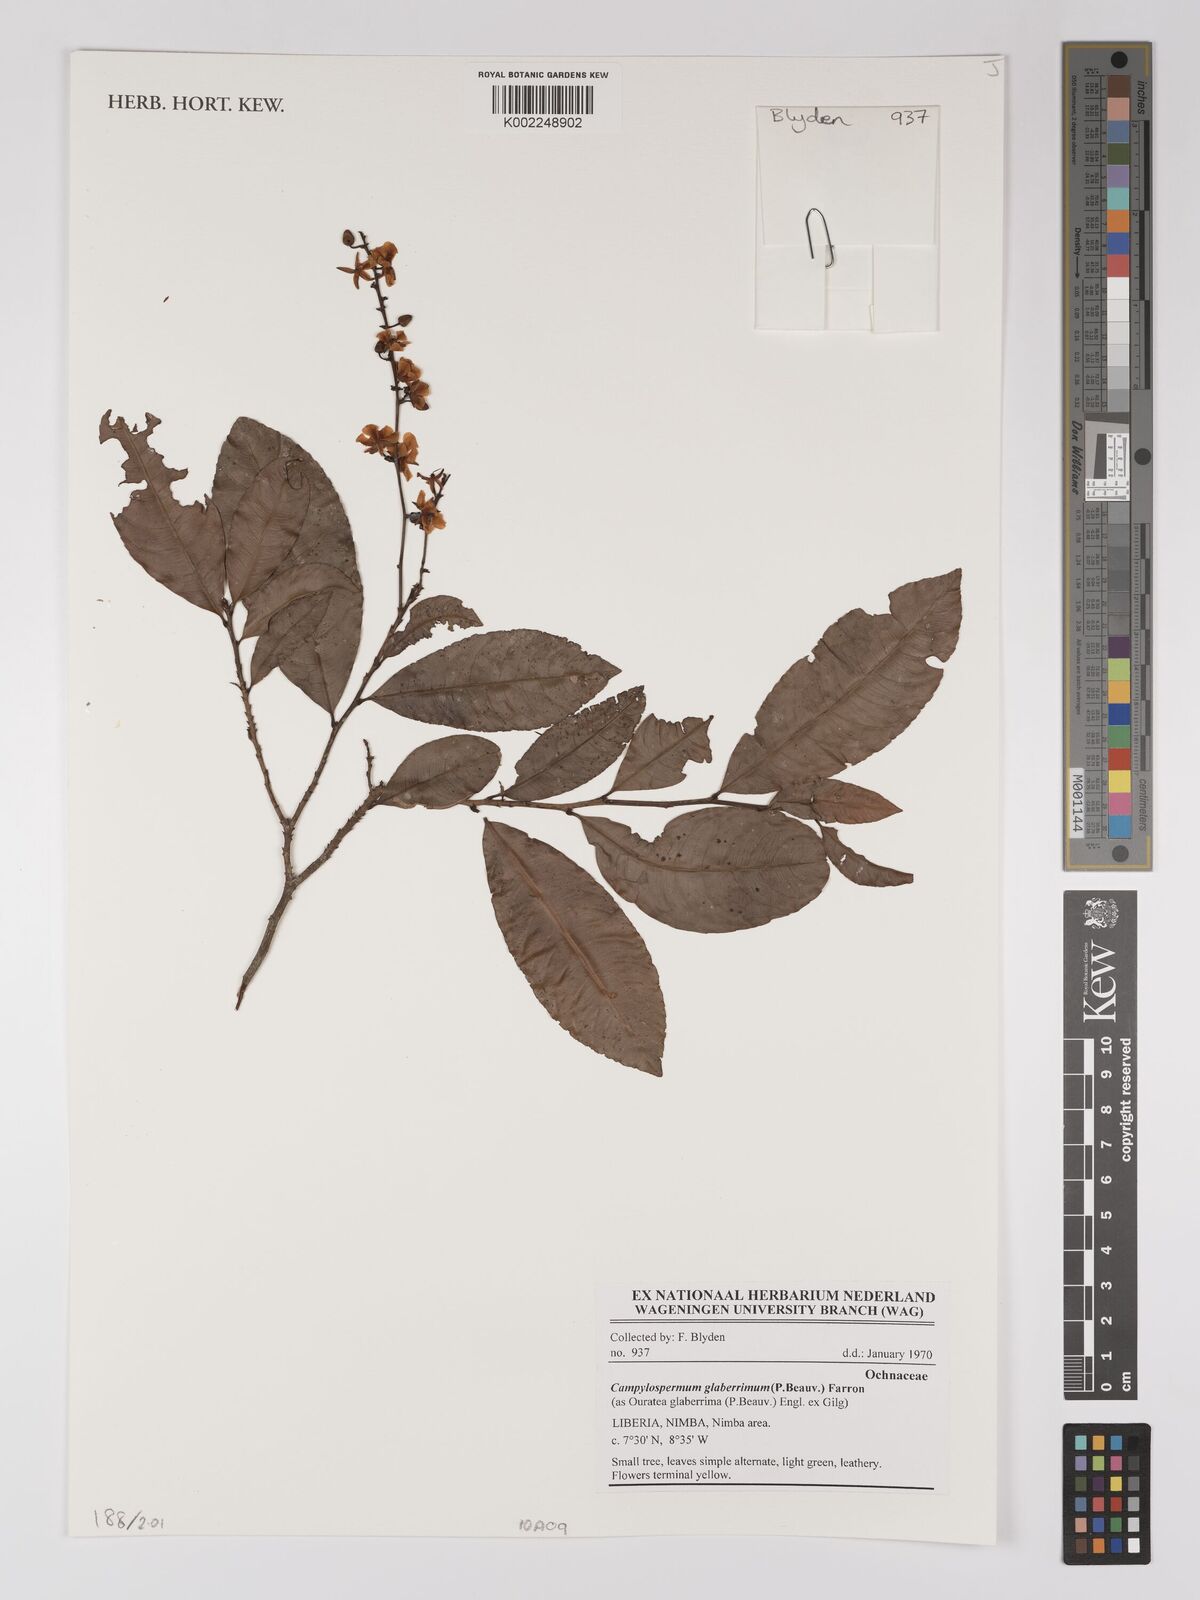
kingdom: Plantae
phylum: Tracheophyta
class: Magnoliopsida
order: Malpighiales
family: Ochnaceae
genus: Campylospermum
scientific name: Campylospermum glaberrimum
